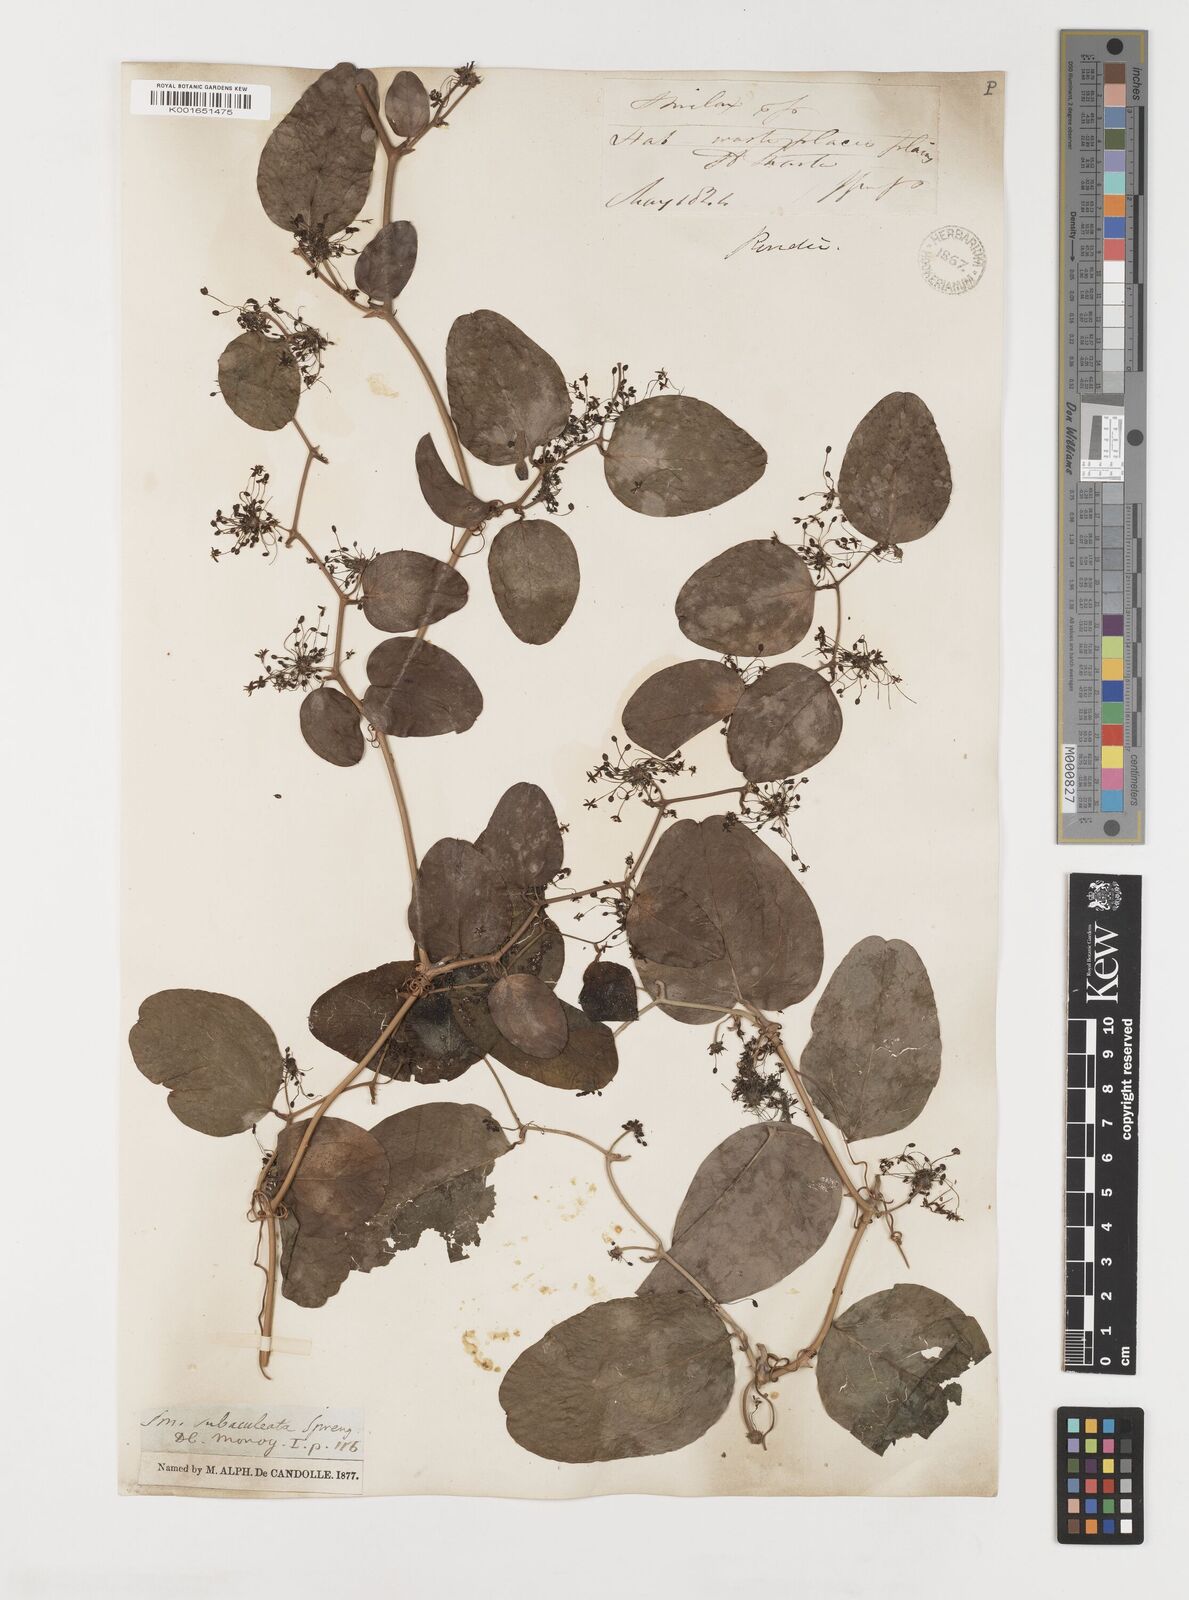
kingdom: Plantae
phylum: Tracheophyta
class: Liliopsida
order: Liliales
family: Smilacaceae
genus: Smilax
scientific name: Smilax canellifolia
